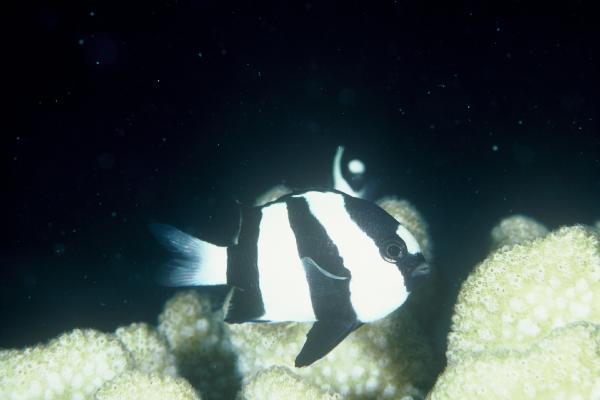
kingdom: Animalia
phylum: Chordata
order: Perciformes
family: Pomacentridae
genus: Dascyllus
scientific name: Dascyllus aruanus
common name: Humbug dascyllus
